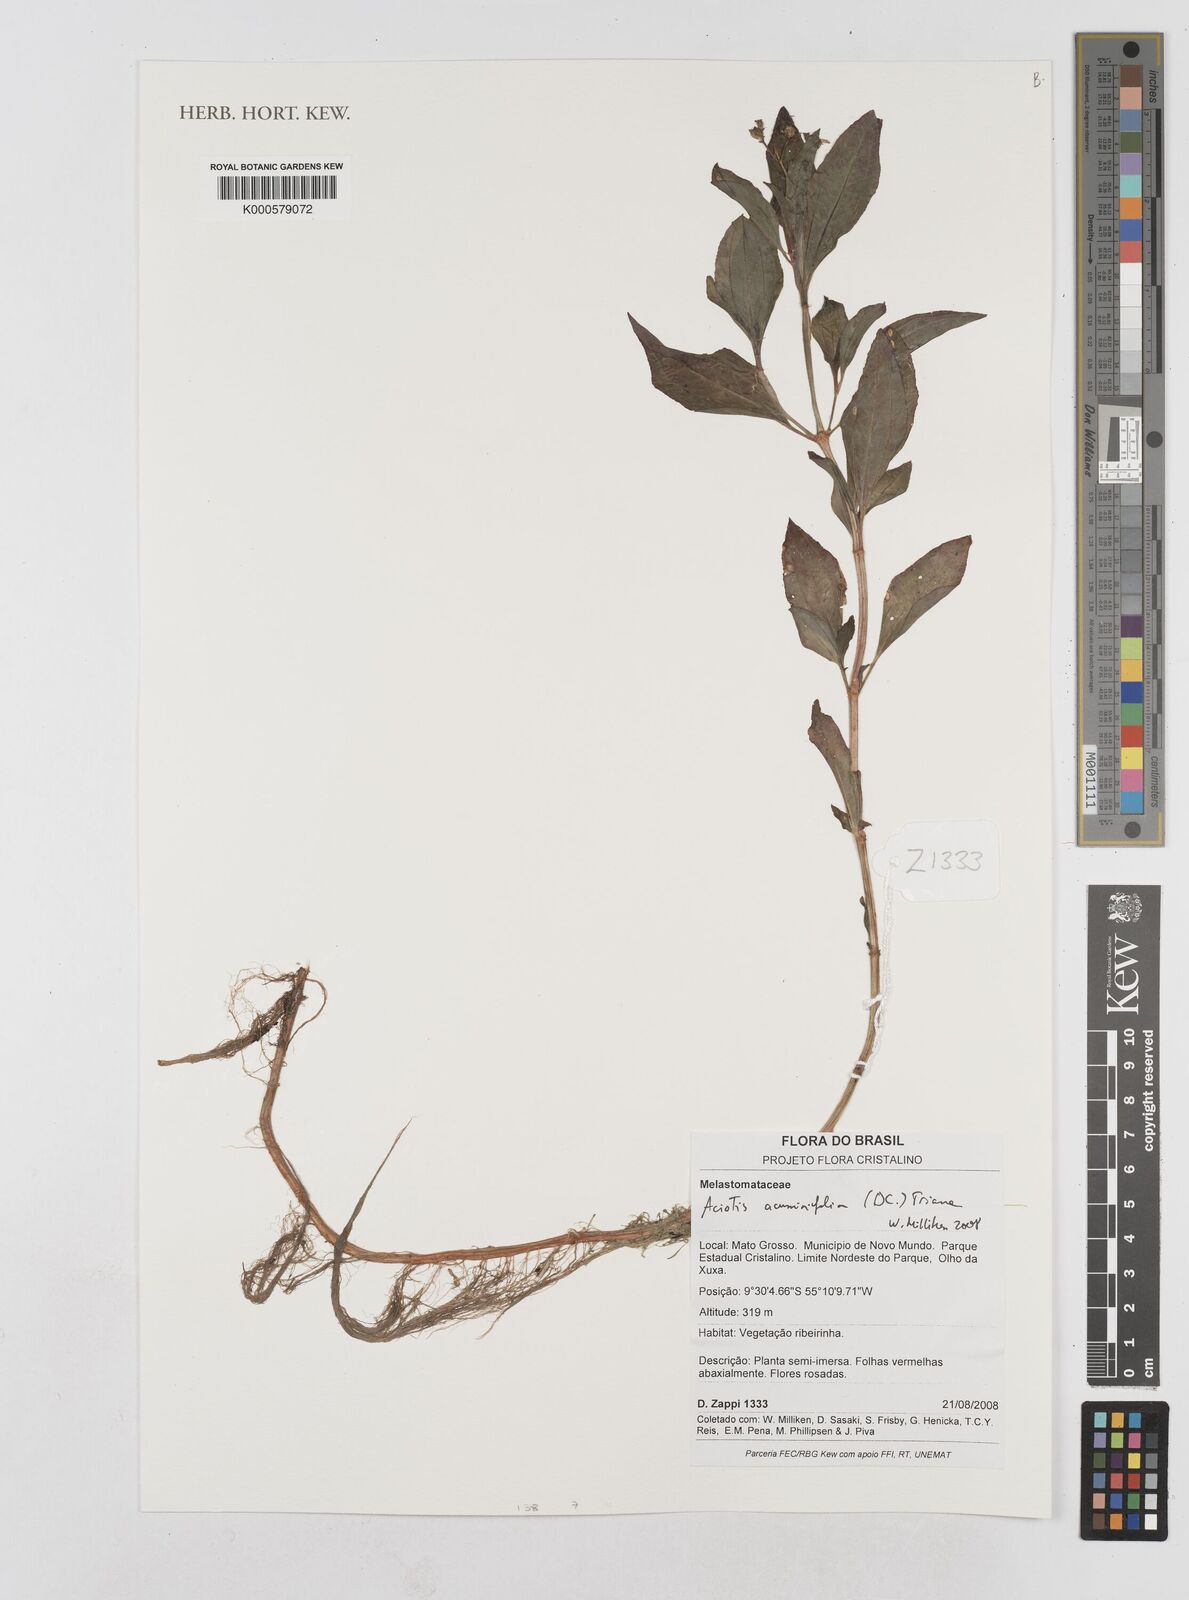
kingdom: Plantae
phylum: Tracheophyta
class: Magnoliopsida
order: Myrtales
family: Melastomataceae
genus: Aciotis
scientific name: Aciotis acuminifolia
